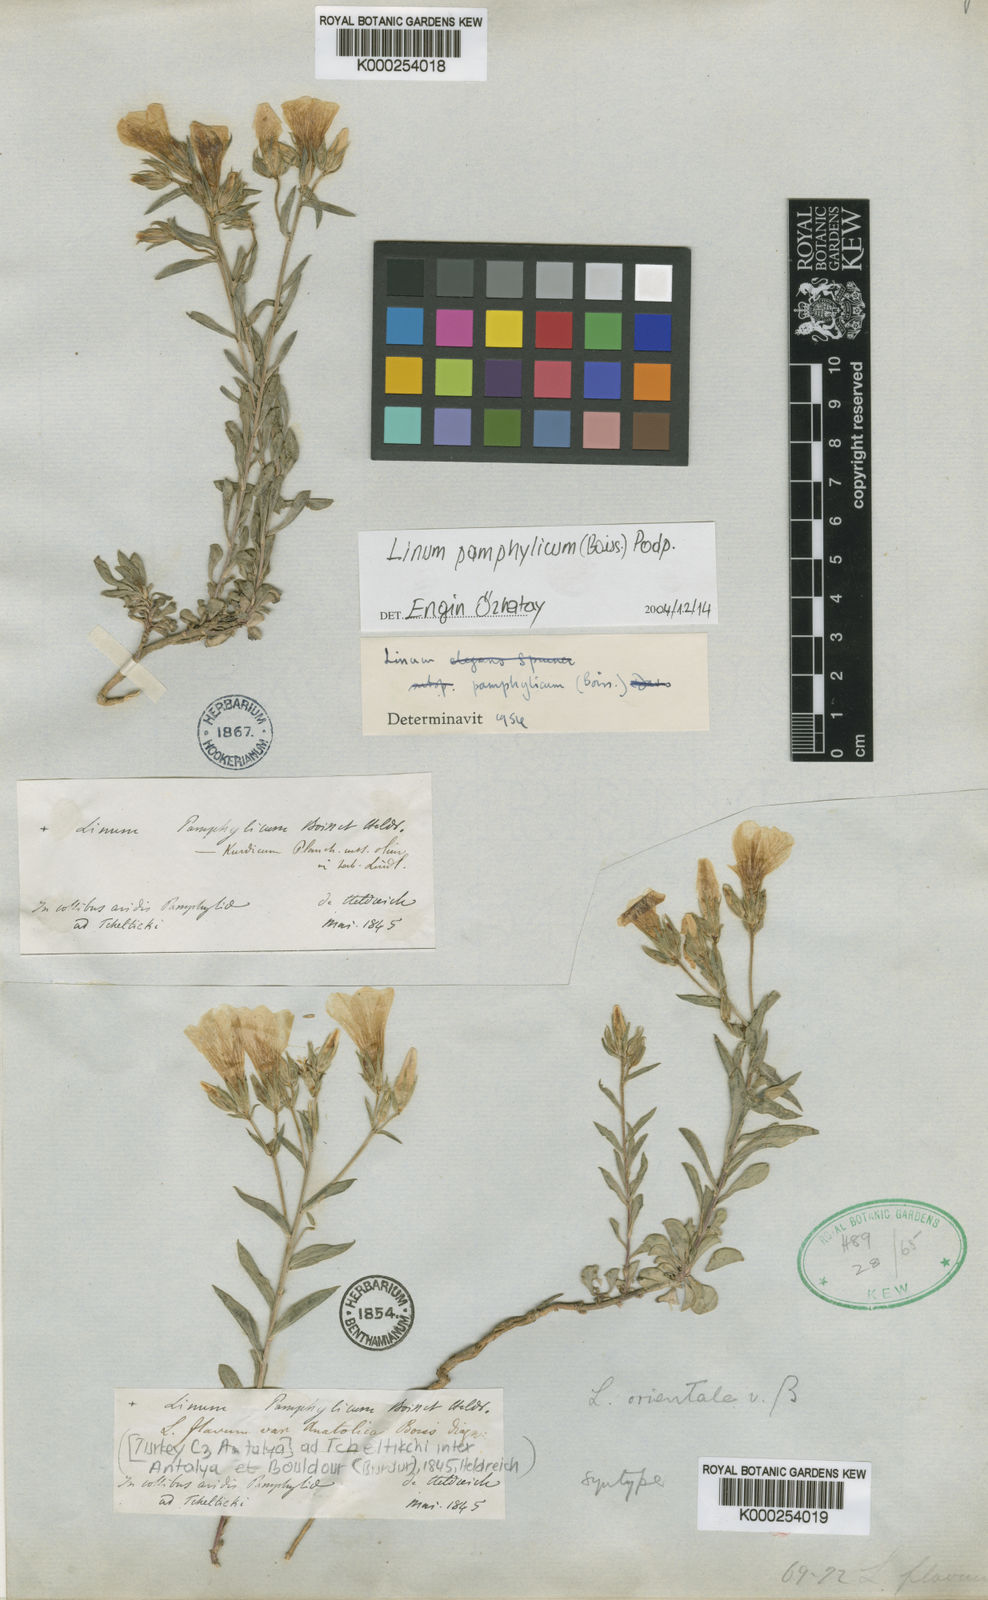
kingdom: Plantae
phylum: Tracheophyta
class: Magnoliopsida
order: Malpighiales
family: Linaceae
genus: Linum
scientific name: Linum pamphylicum
